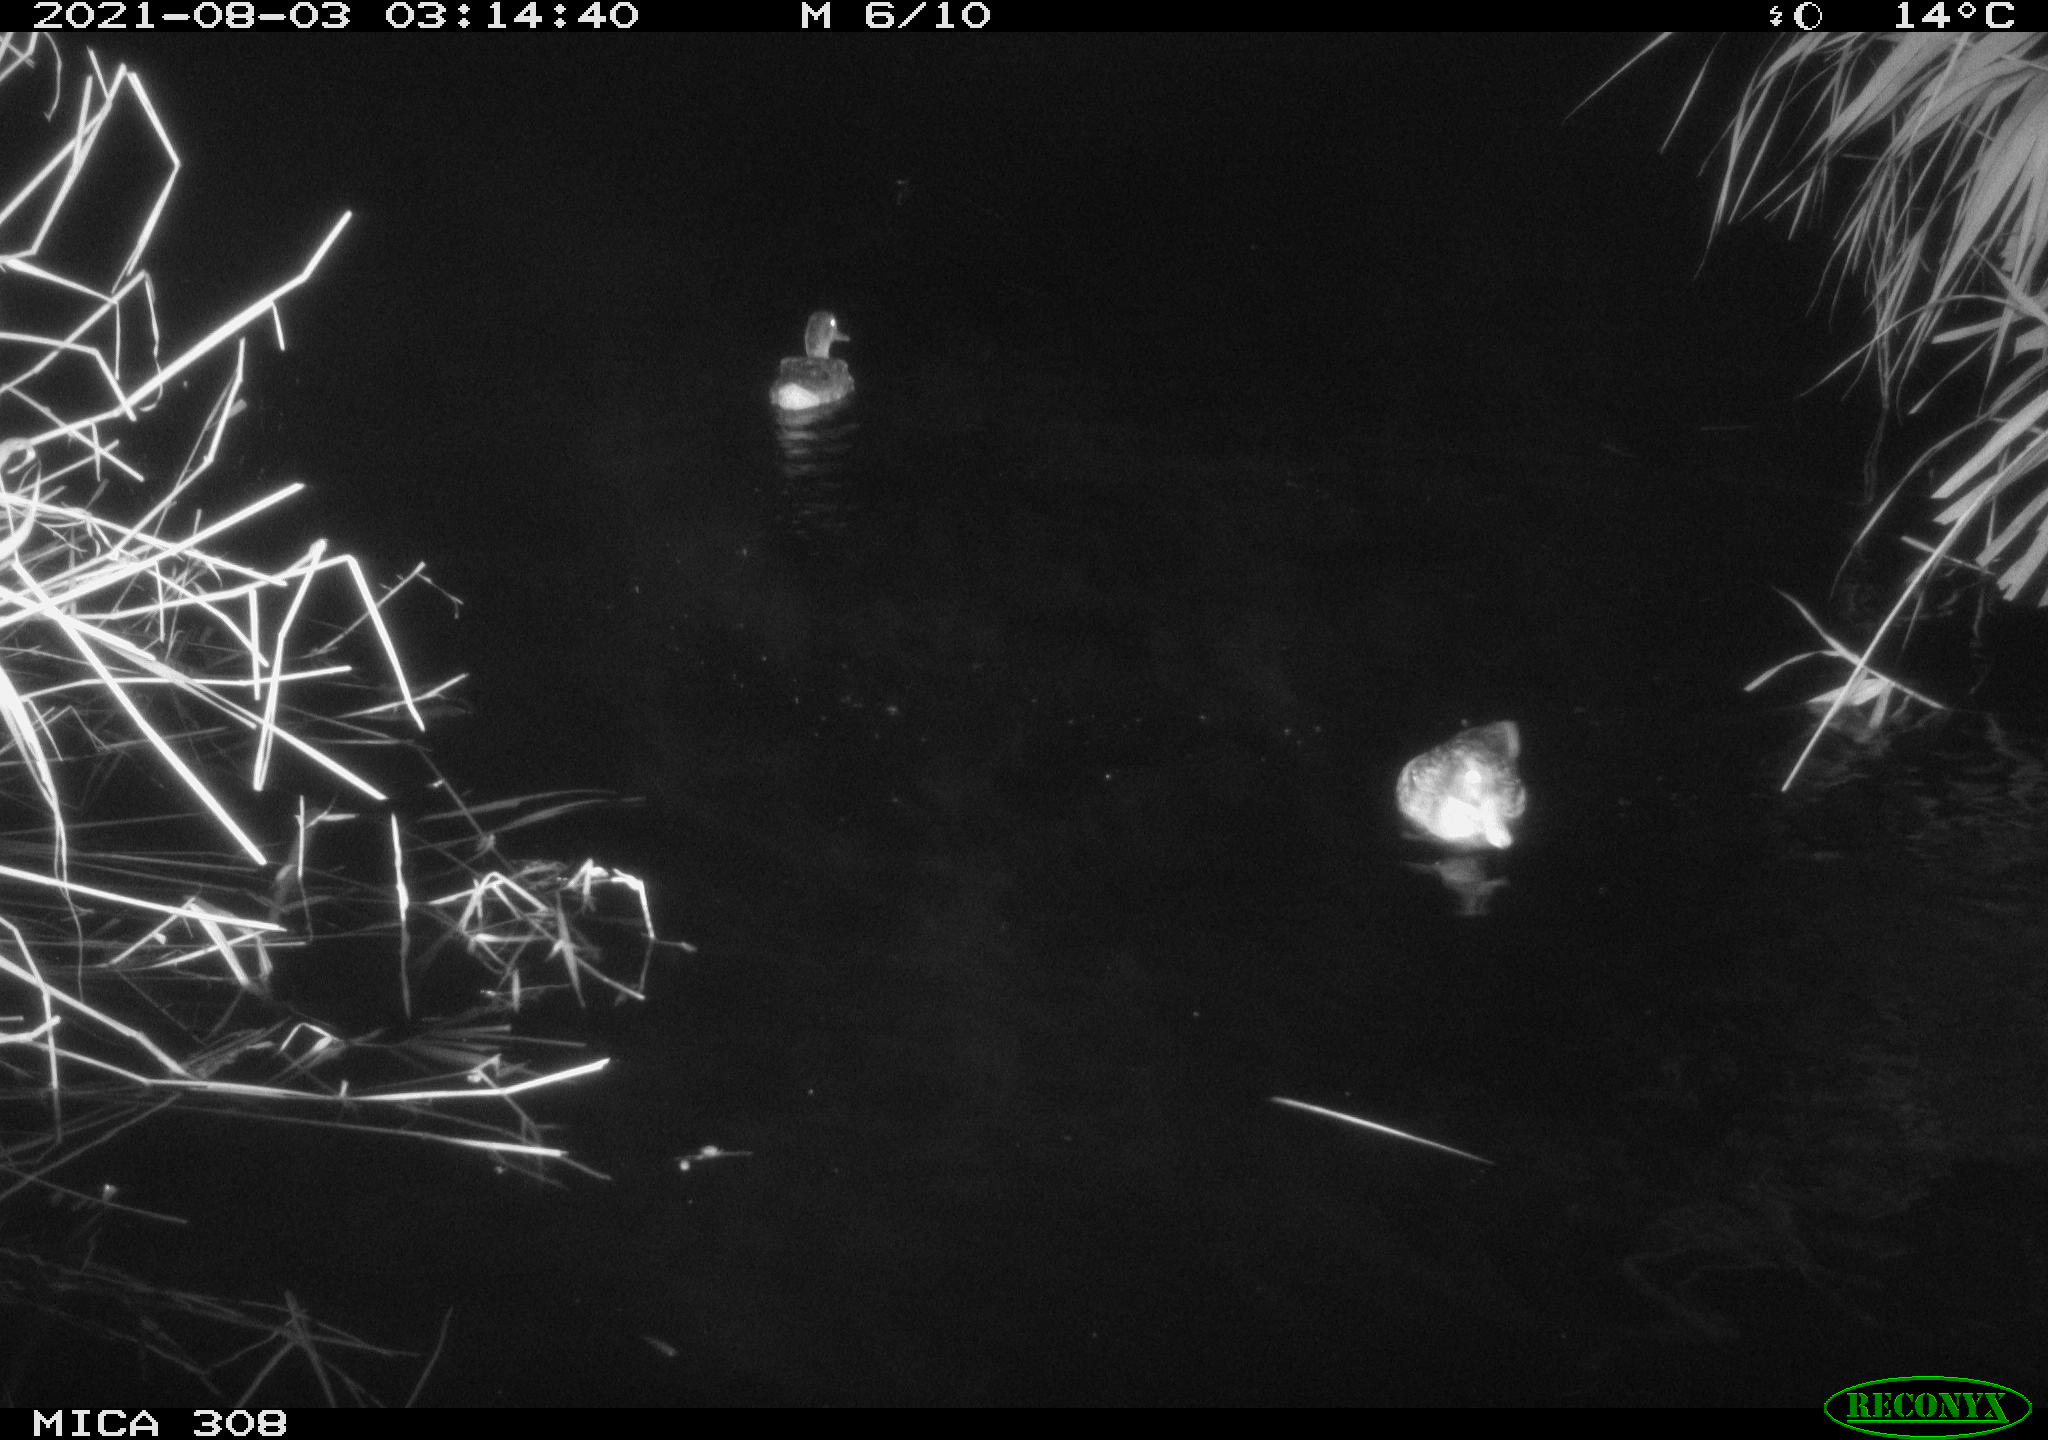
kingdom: Animalia
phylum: Chordata
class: Aves
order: Anseriformes
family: Anatidae
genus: Anas
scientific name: Anas platyrhynchos
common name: Mallard
